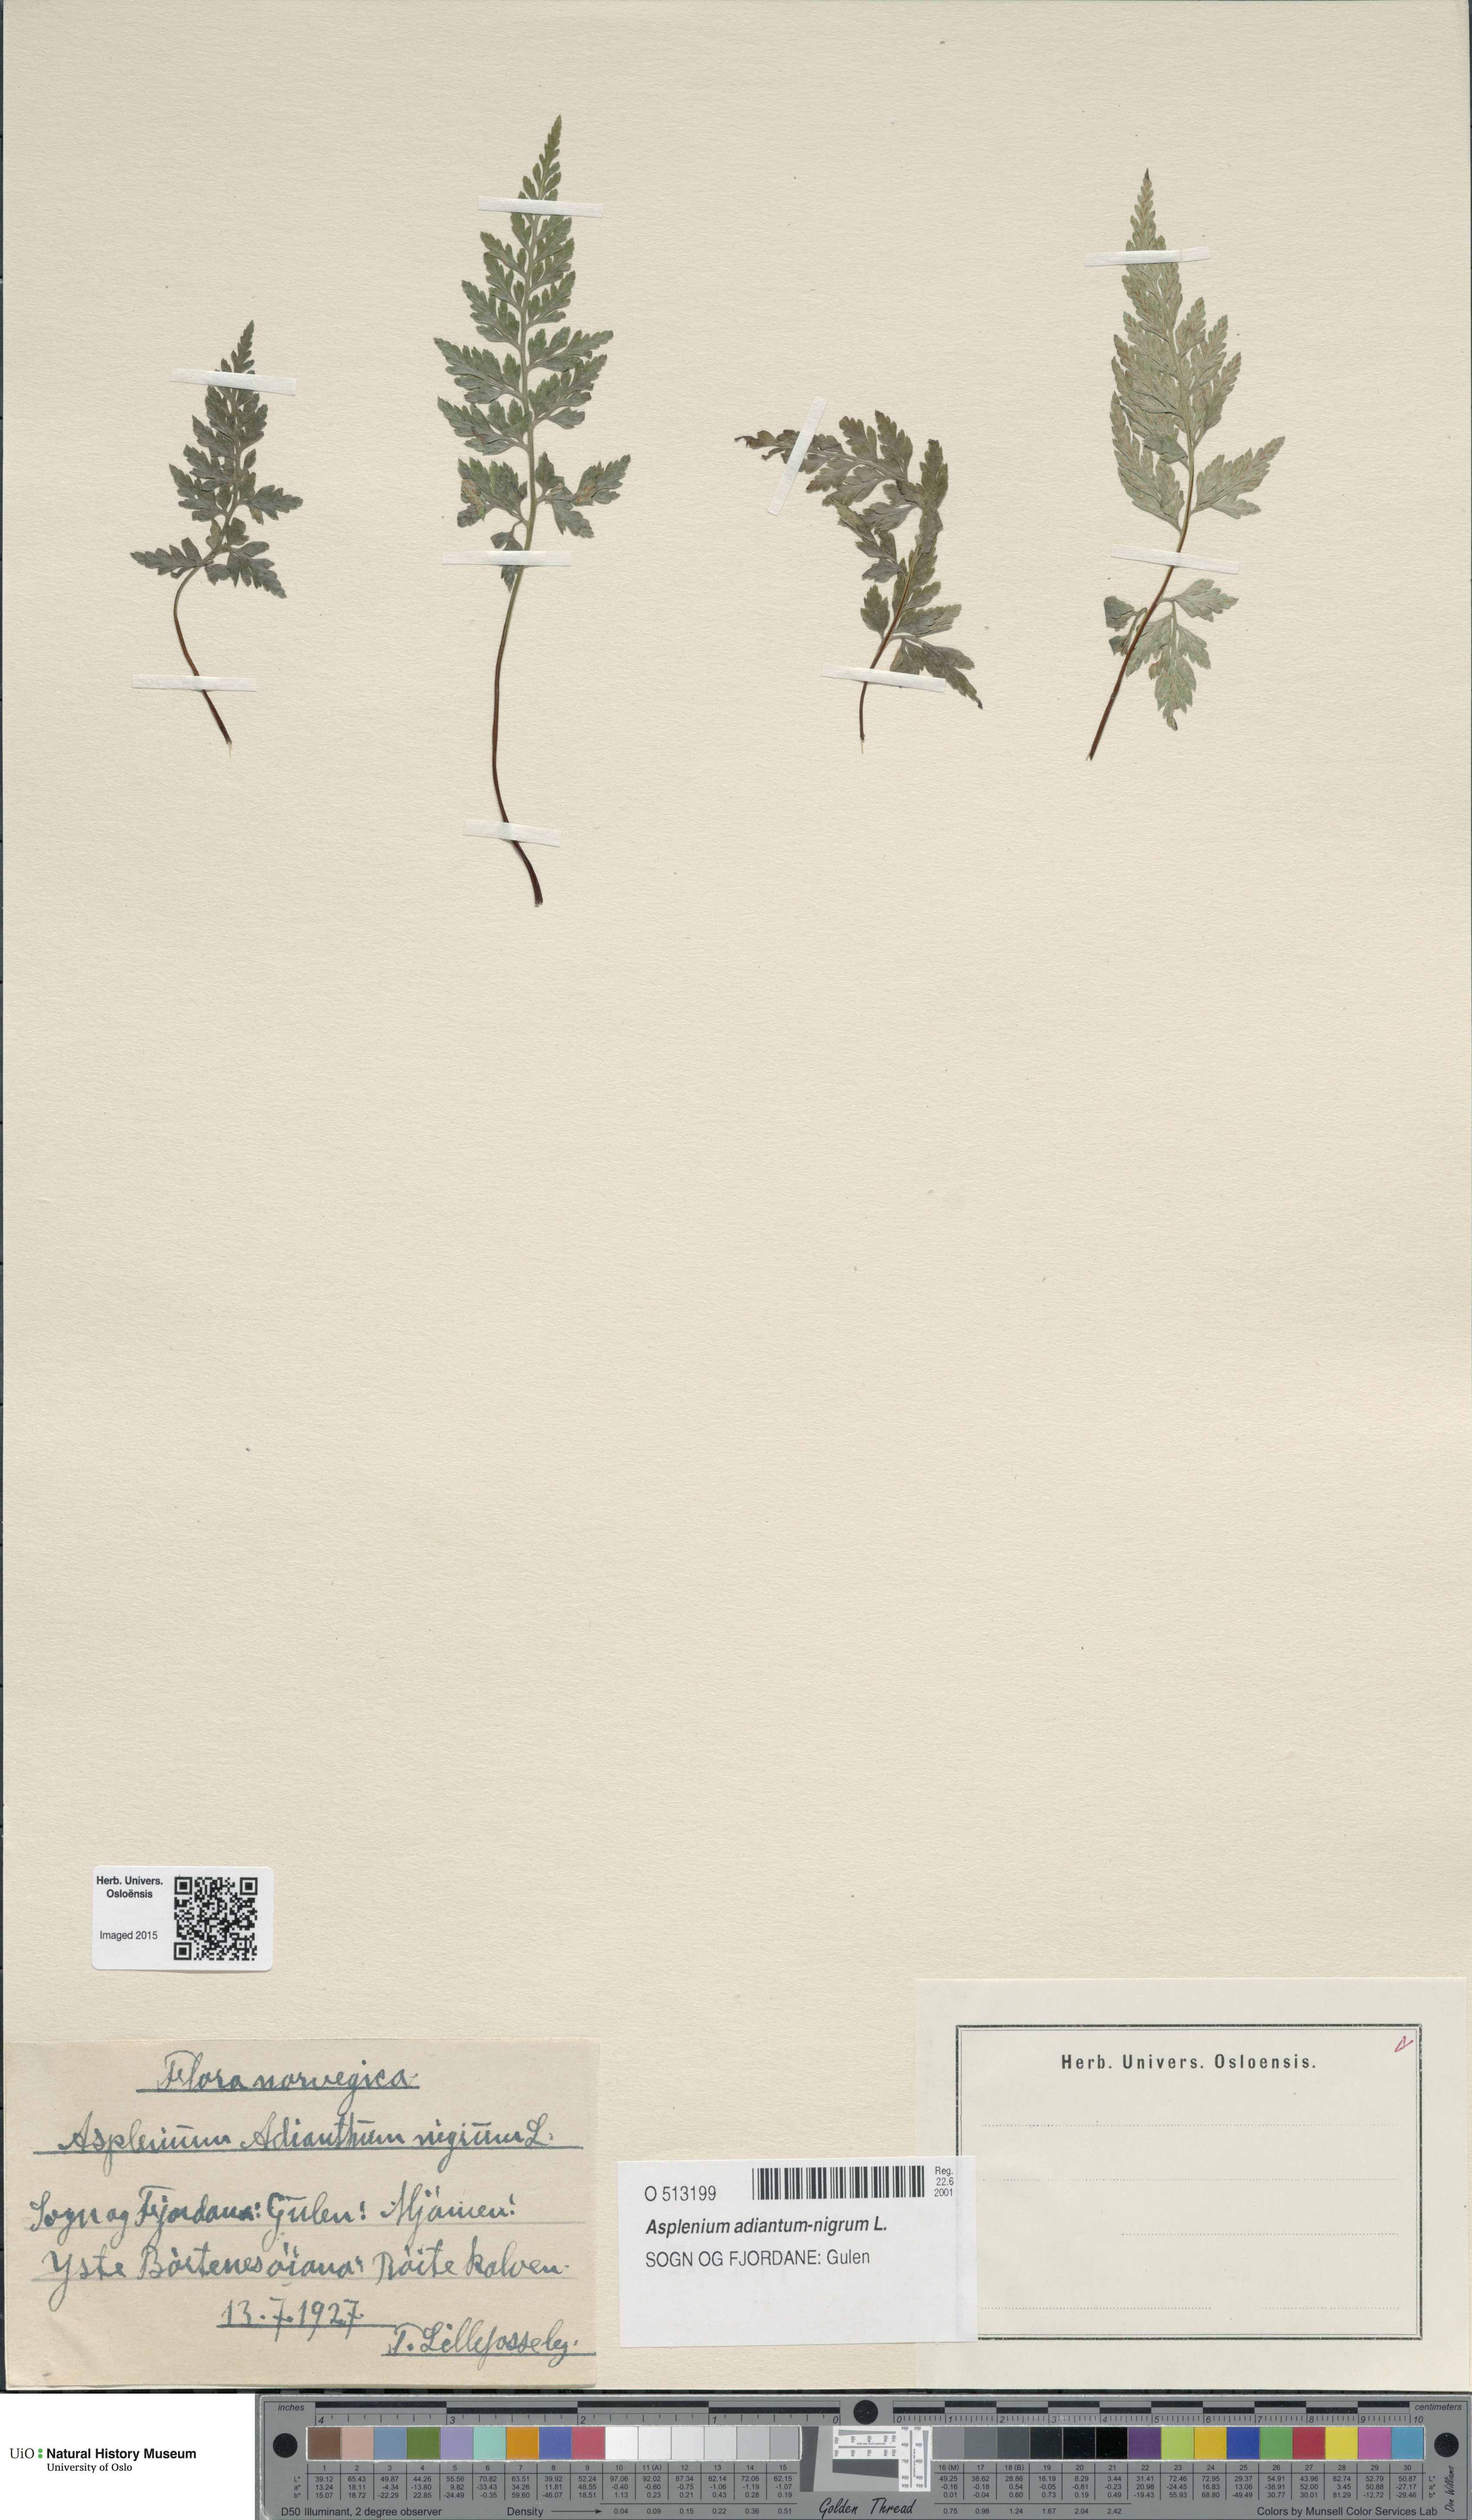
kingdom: Plantae
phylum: Tracheophyta
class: Polypodiopsida
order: Polypodiales
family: Aspleniaceae
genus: Asplenium
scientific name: Asplenium adiantum-nigrum
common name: Black spleenwort
